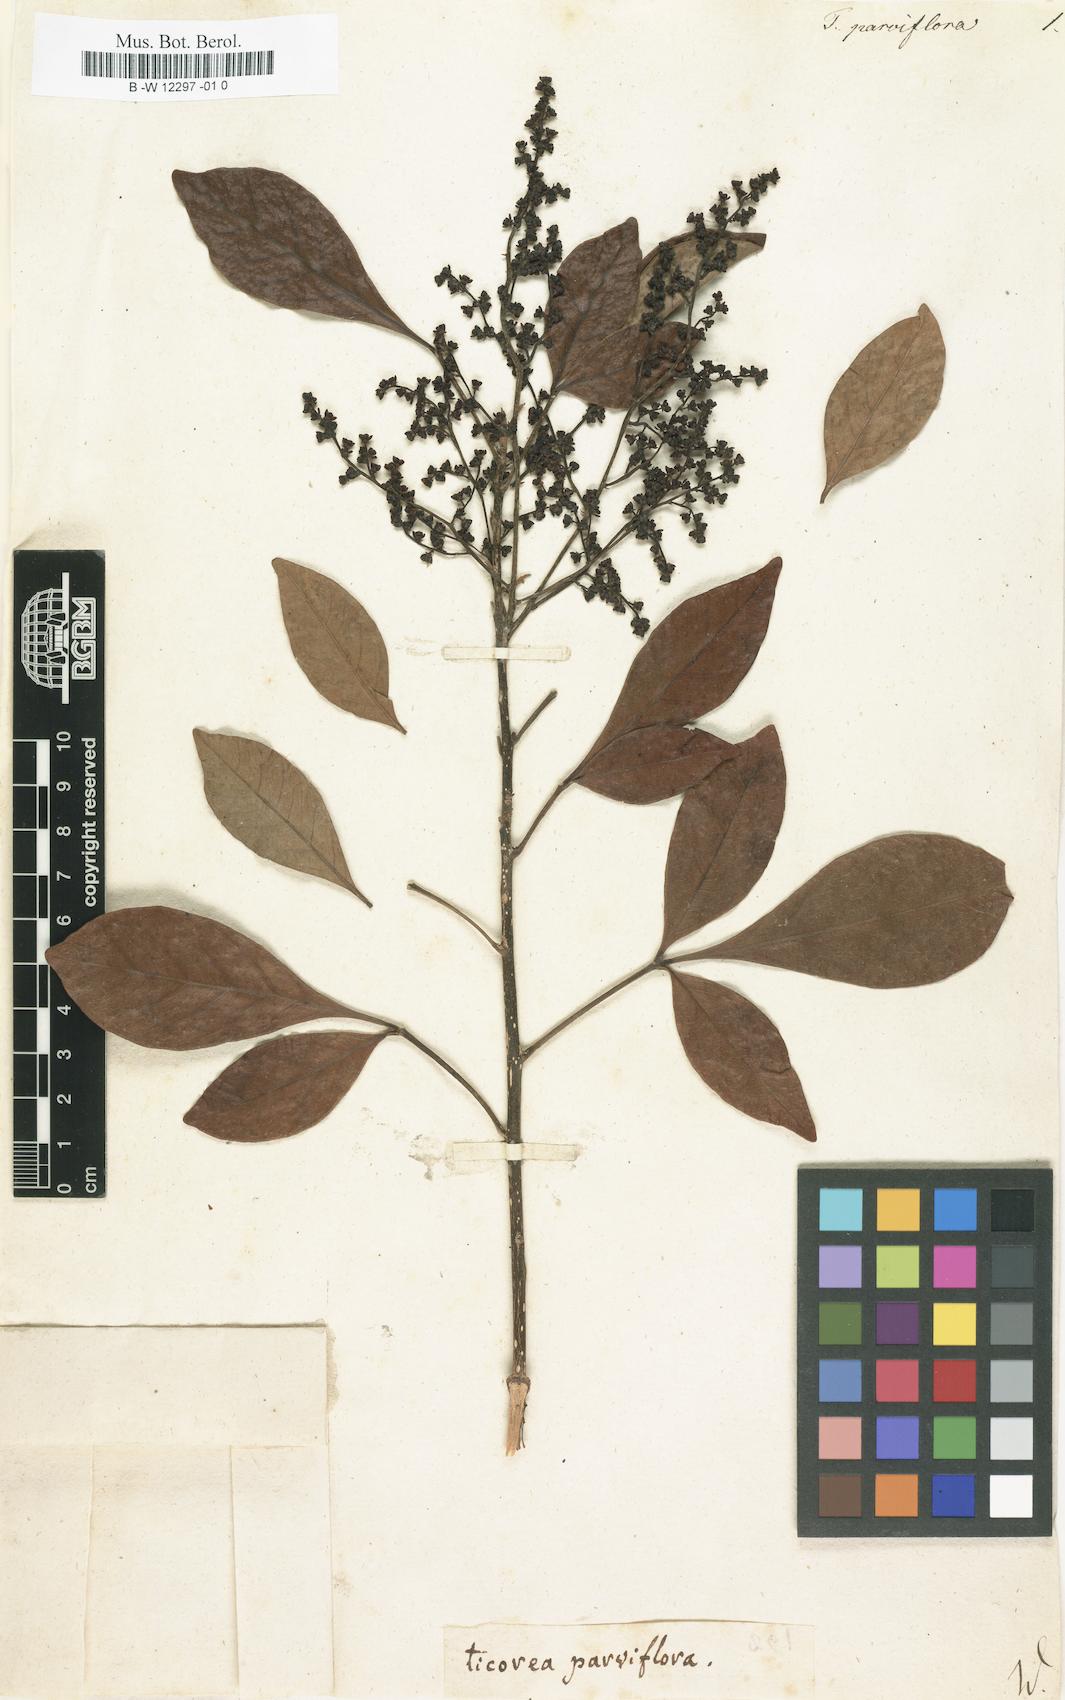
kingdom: Plantae
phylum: Tracheophyta
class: Magnoliopsida
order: Sapindales
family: Rutaceae
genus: Ticorea
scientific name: Ticorea
